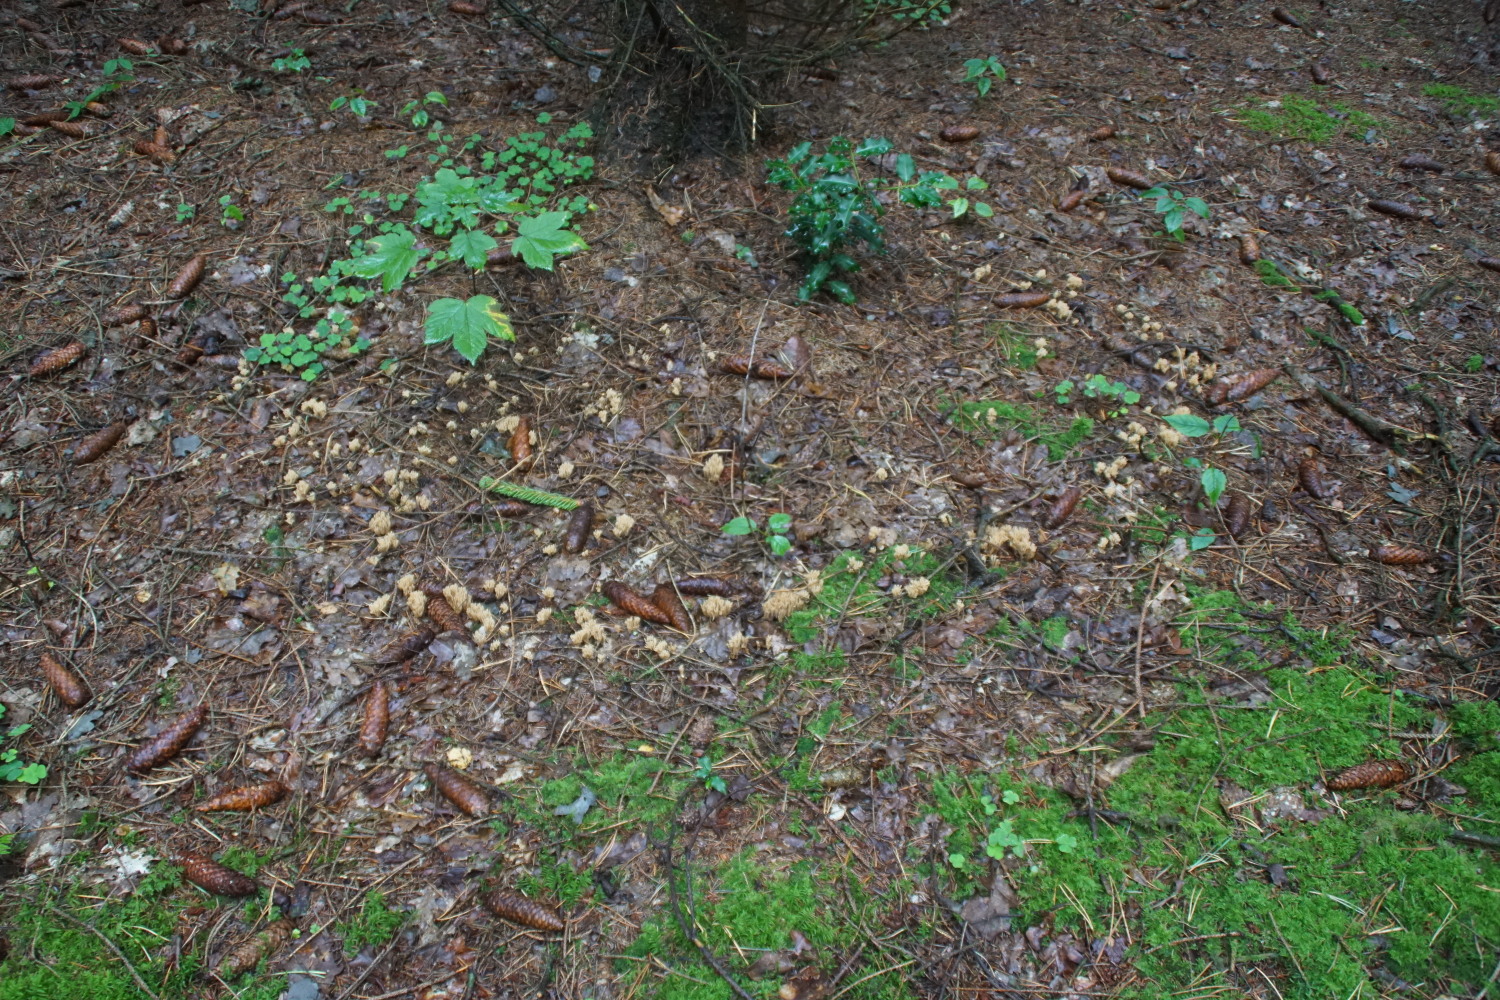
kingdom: Fungi
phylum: Basidiomycota
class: Agaricomycetes
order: Gomphales
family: Gomphaceae
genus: Phaeoclavulina
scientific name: Phaeoclavulina eumorpha
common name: gran-koralsvamp
